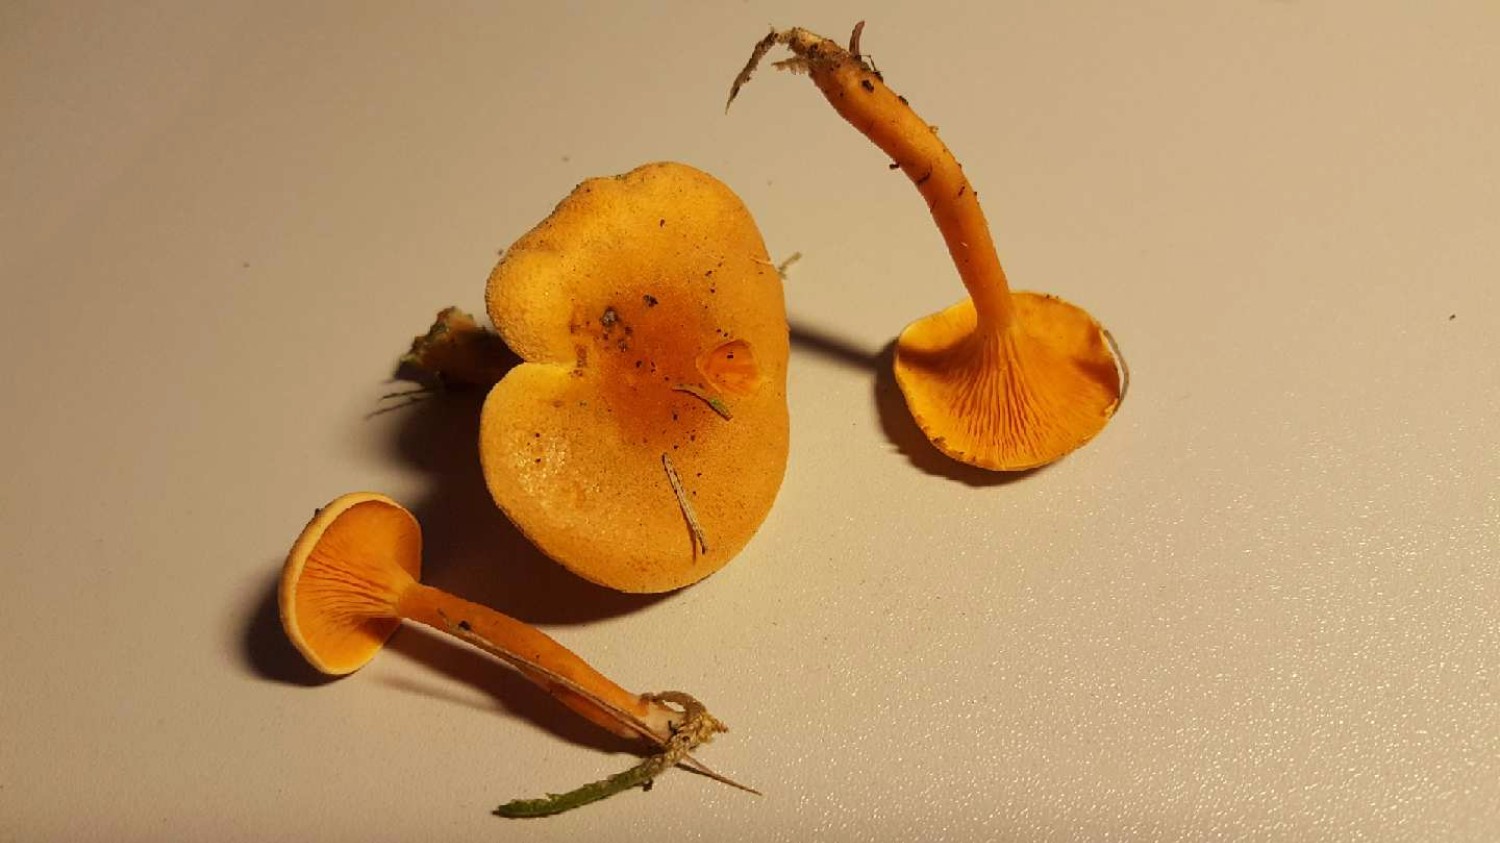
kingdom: Fungi
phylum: Basidiomycota
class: Agaricomycetes
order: Boletales
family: Hygrophoropsidaceae
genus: Hygrophoropsis
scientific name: Hygrophoropsis aurantiaca
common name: almindelig orangekantarel
